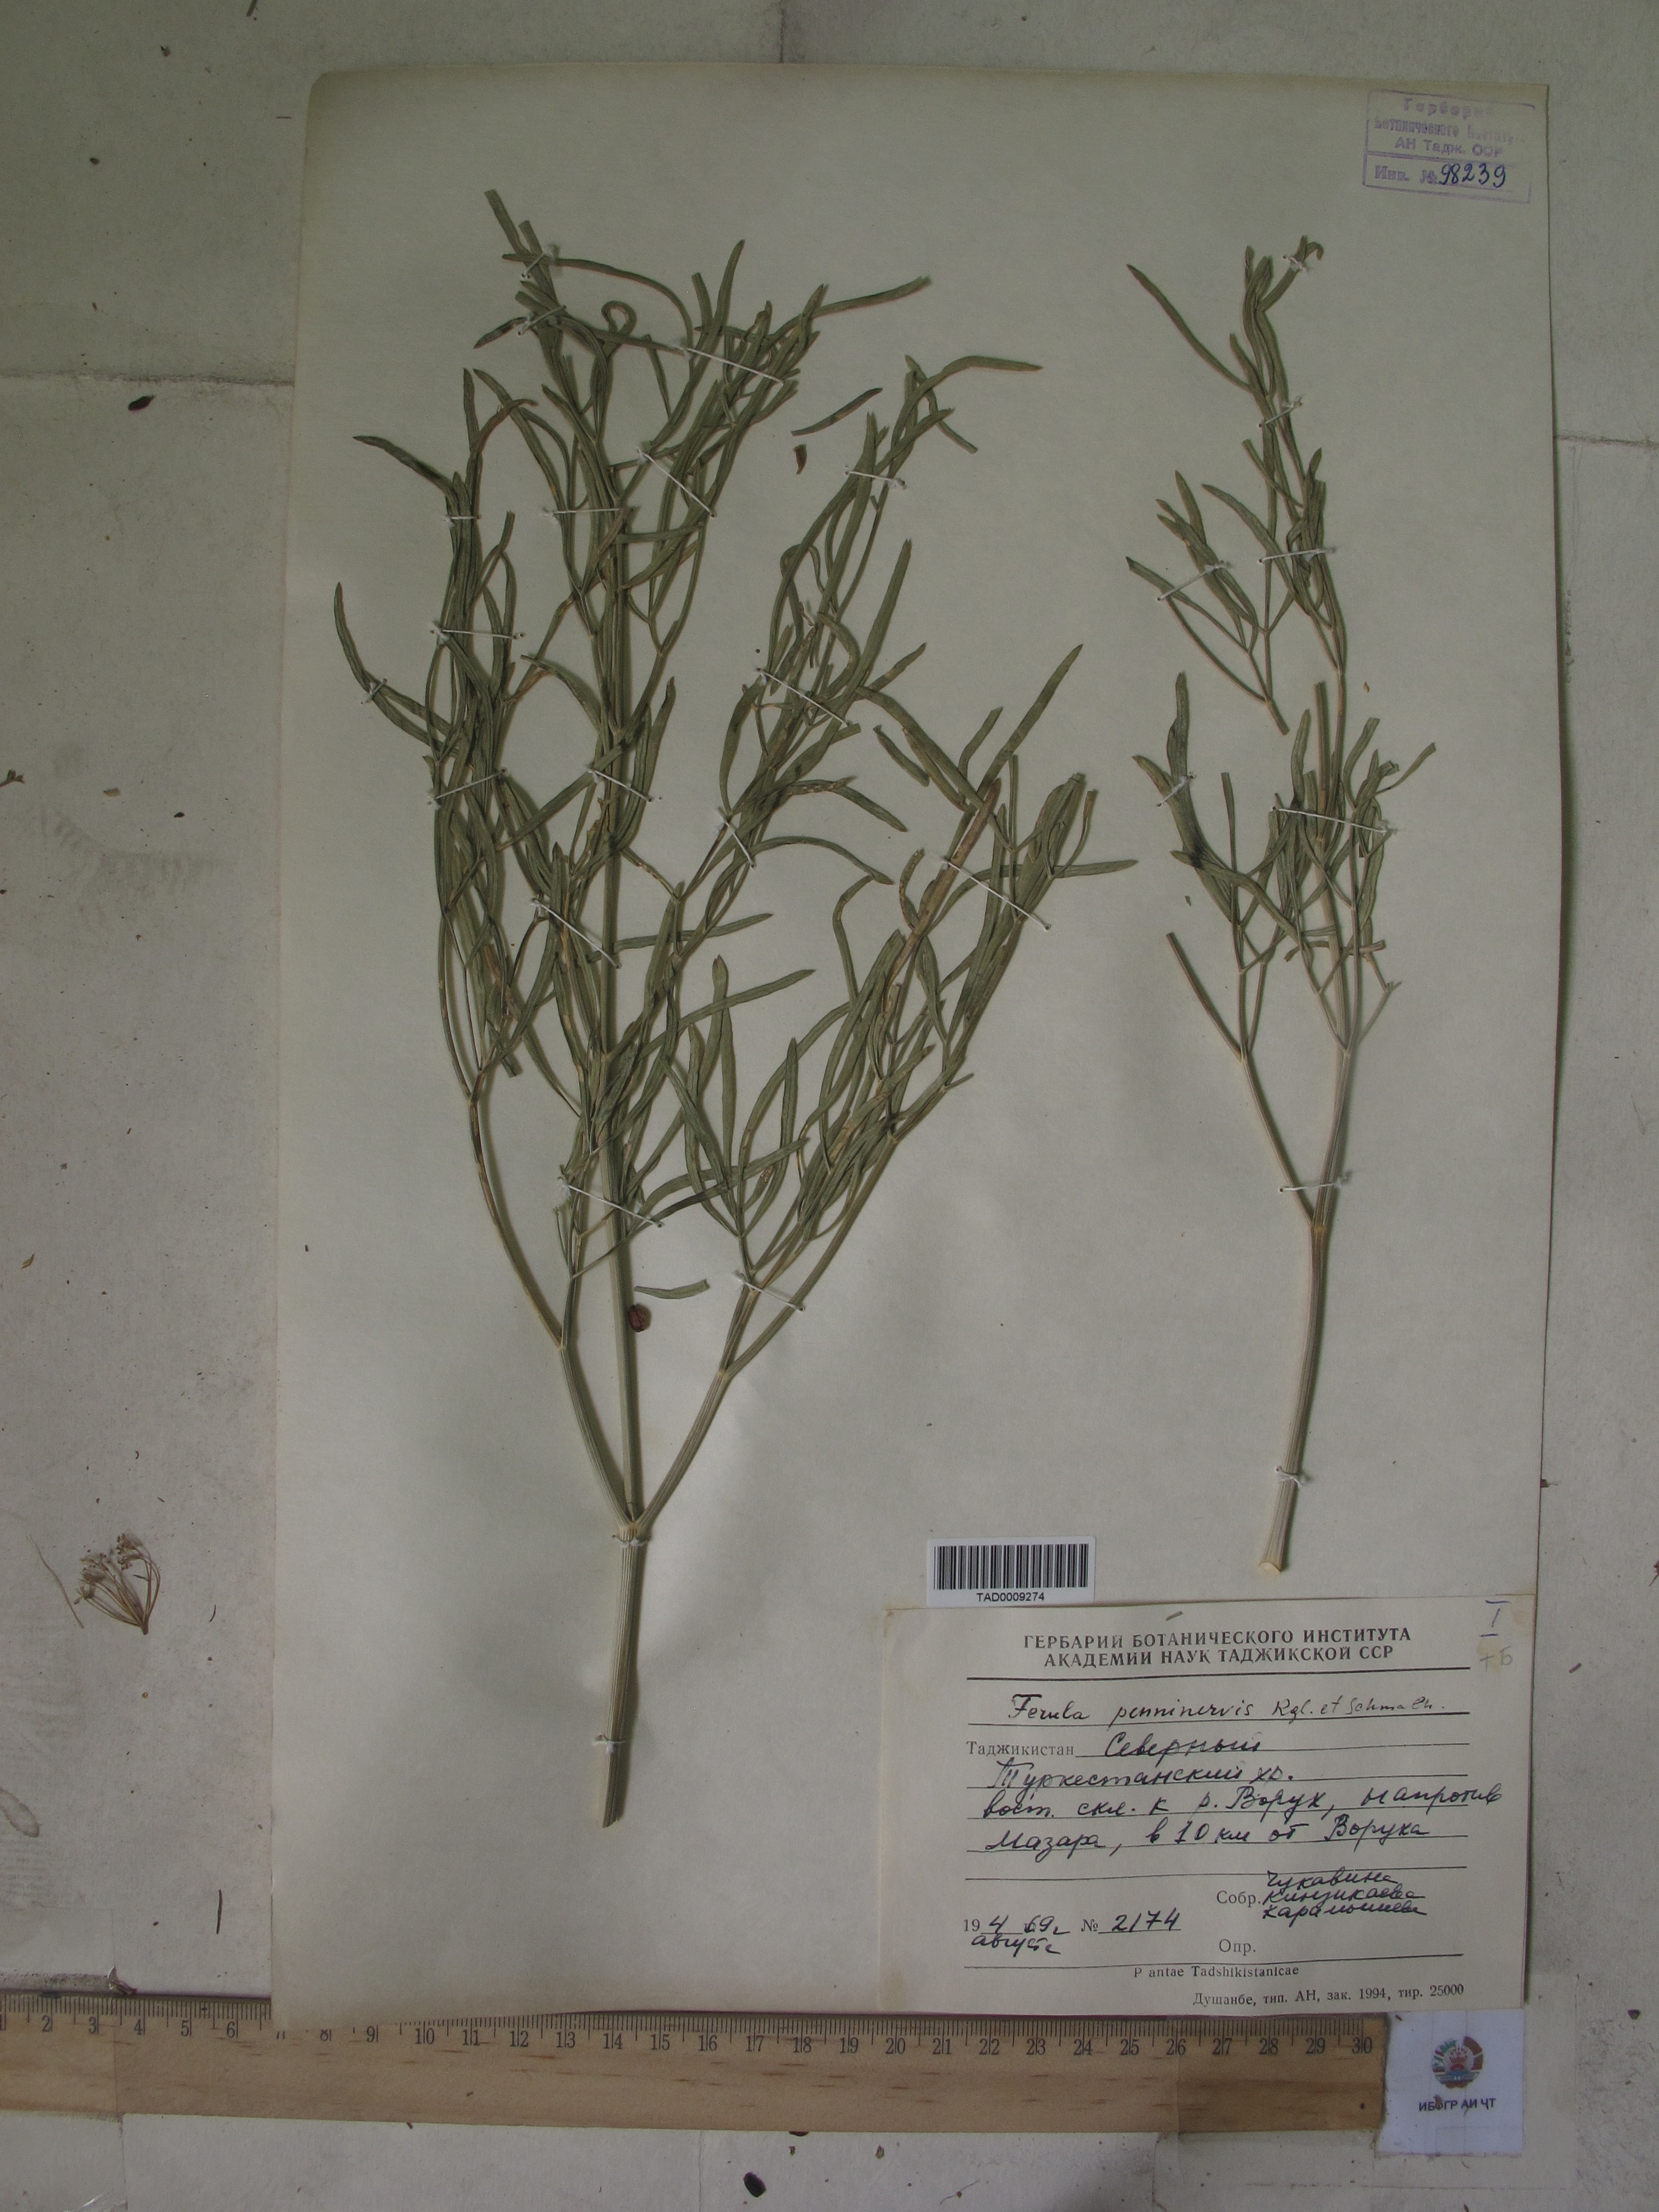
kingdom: Plantae
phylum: Tracheophyta
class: Magnoliopsida
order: Apiales
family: Apiaceae
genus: Ferula
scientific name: Ferula
